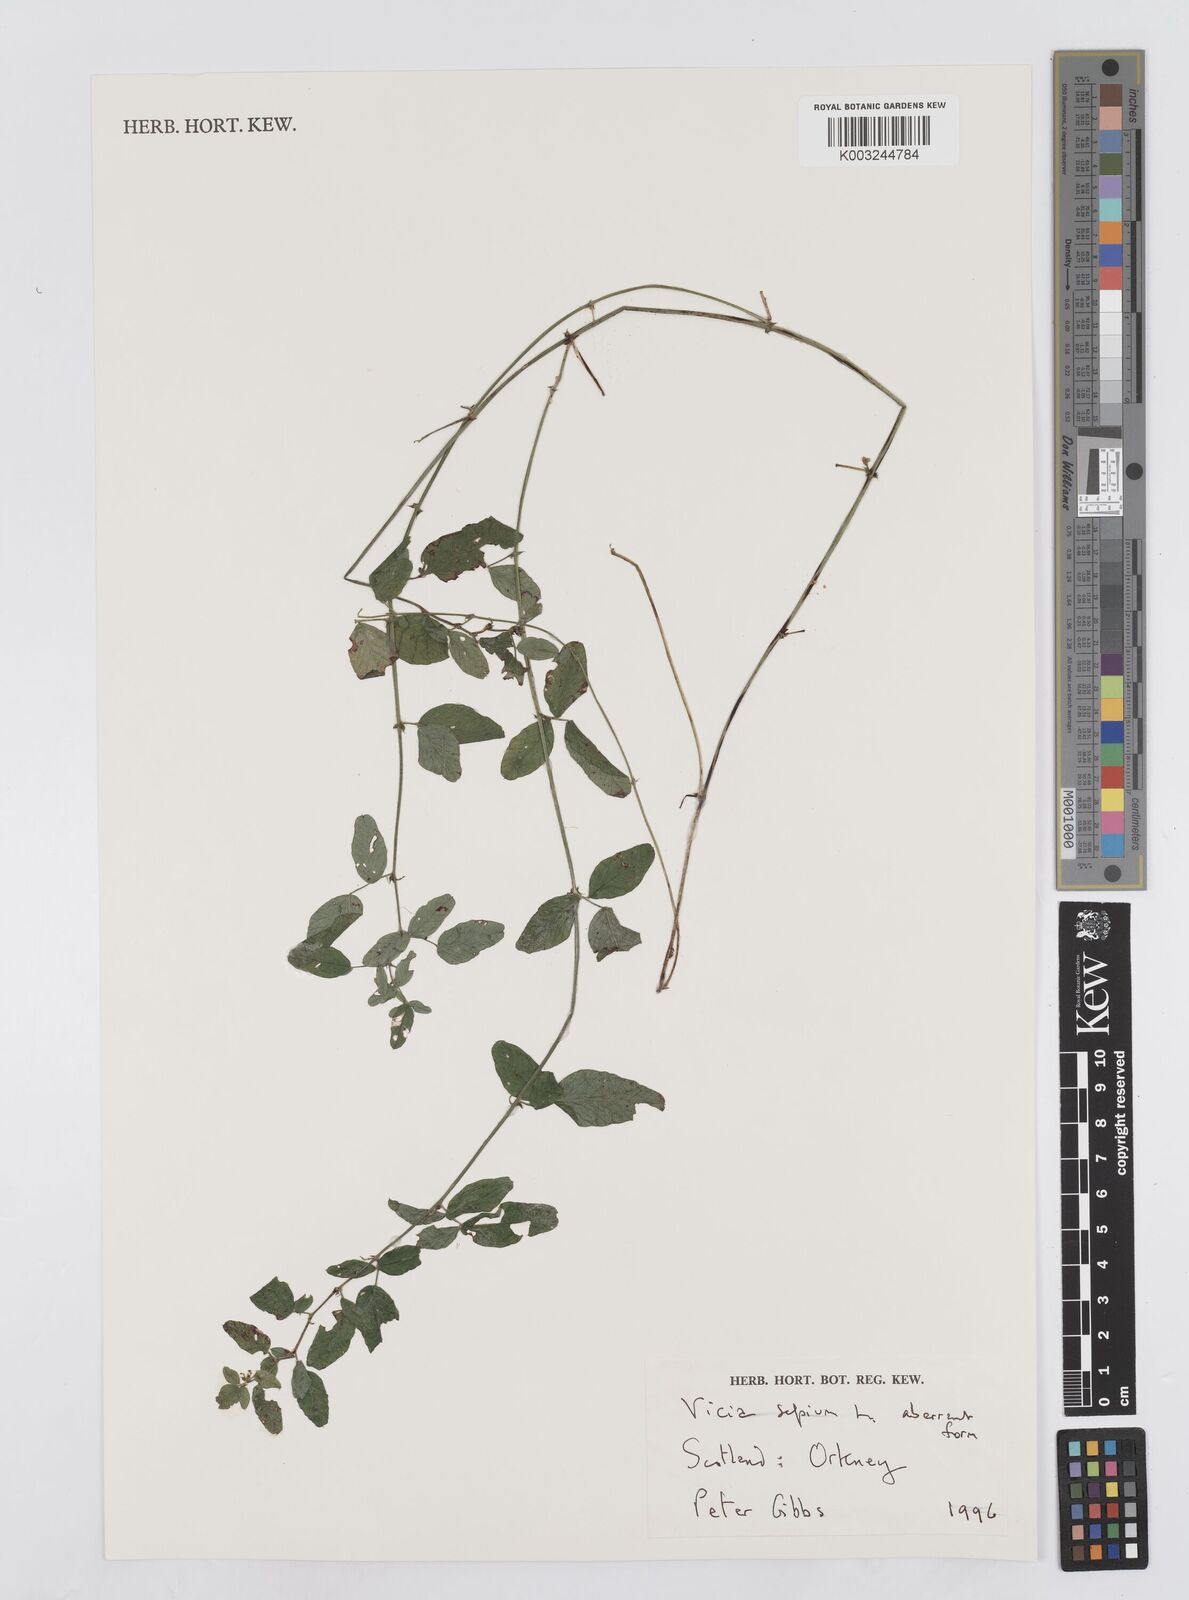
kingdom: Plantae
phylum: Tracheophyta
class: Magnoliopsida
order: Fabales
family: Fabaceae
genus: Vicia
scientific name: Vicia sepium
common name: Bush vetch
